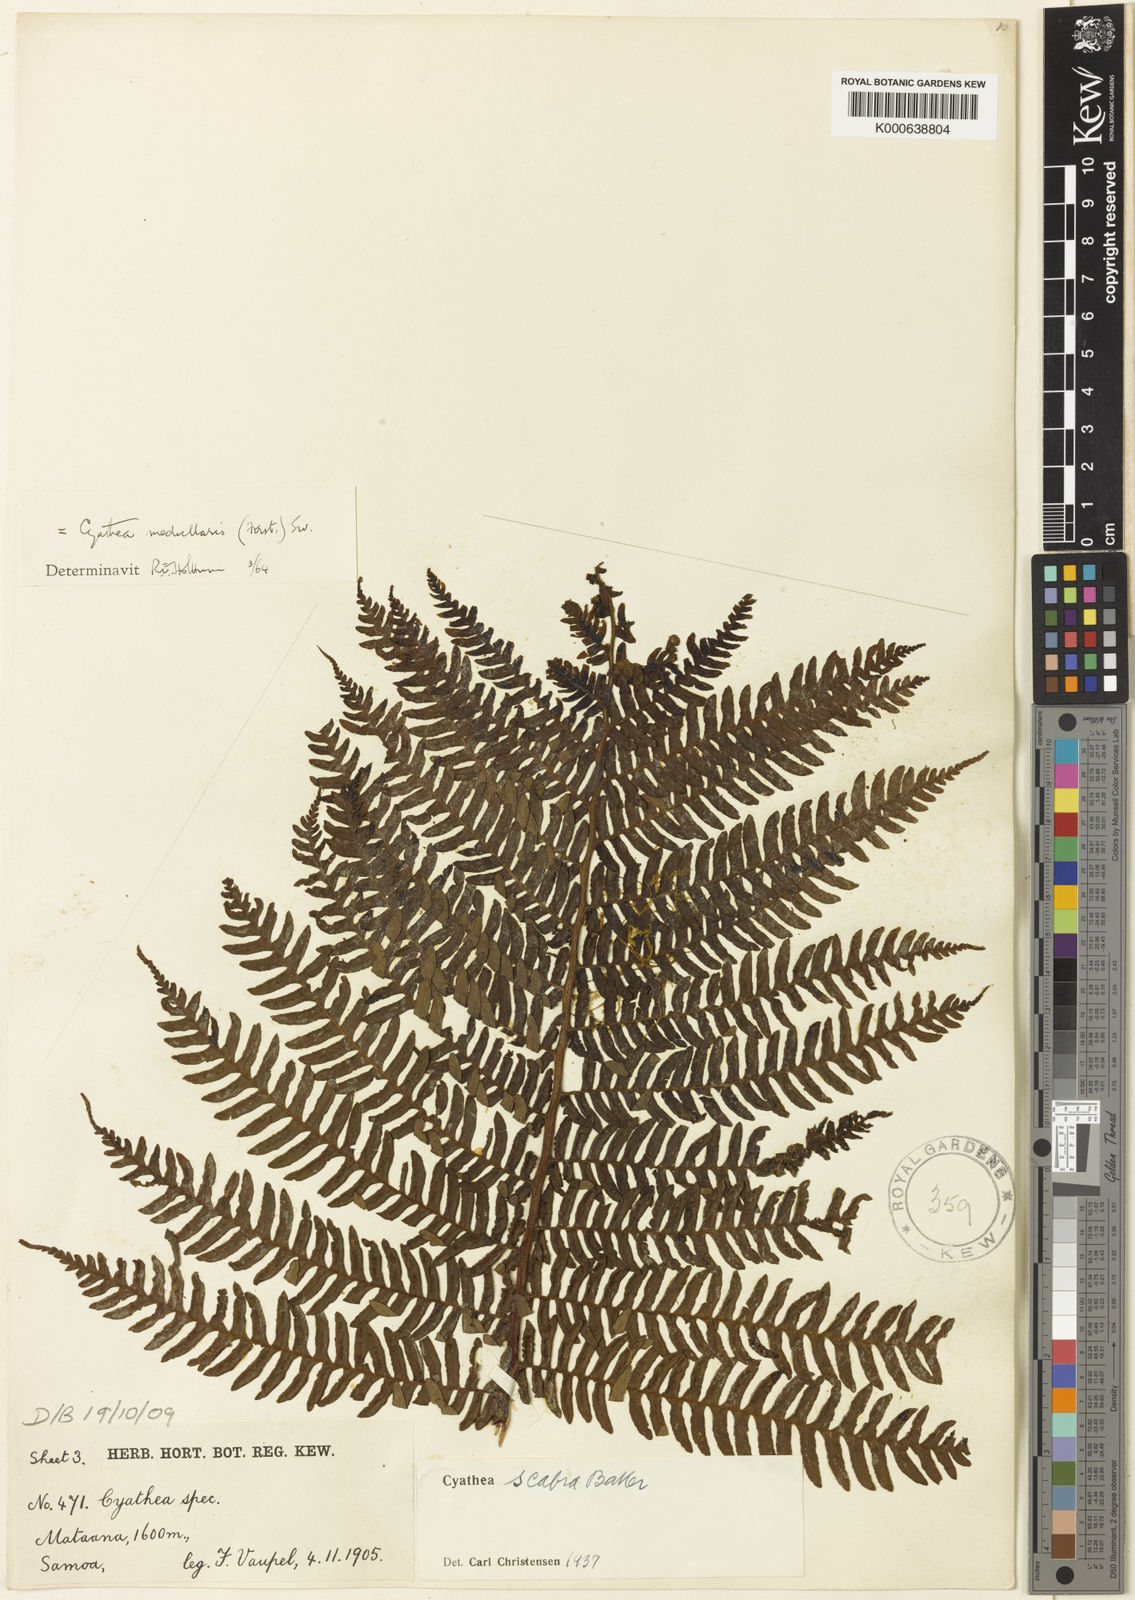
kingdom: Plantae
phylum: Tracheophyta
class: Polypodiopsida
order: Cyatheales
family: Cyatheaceae
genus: Sphaeropteris
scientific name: Sphaeropteris medullaris
